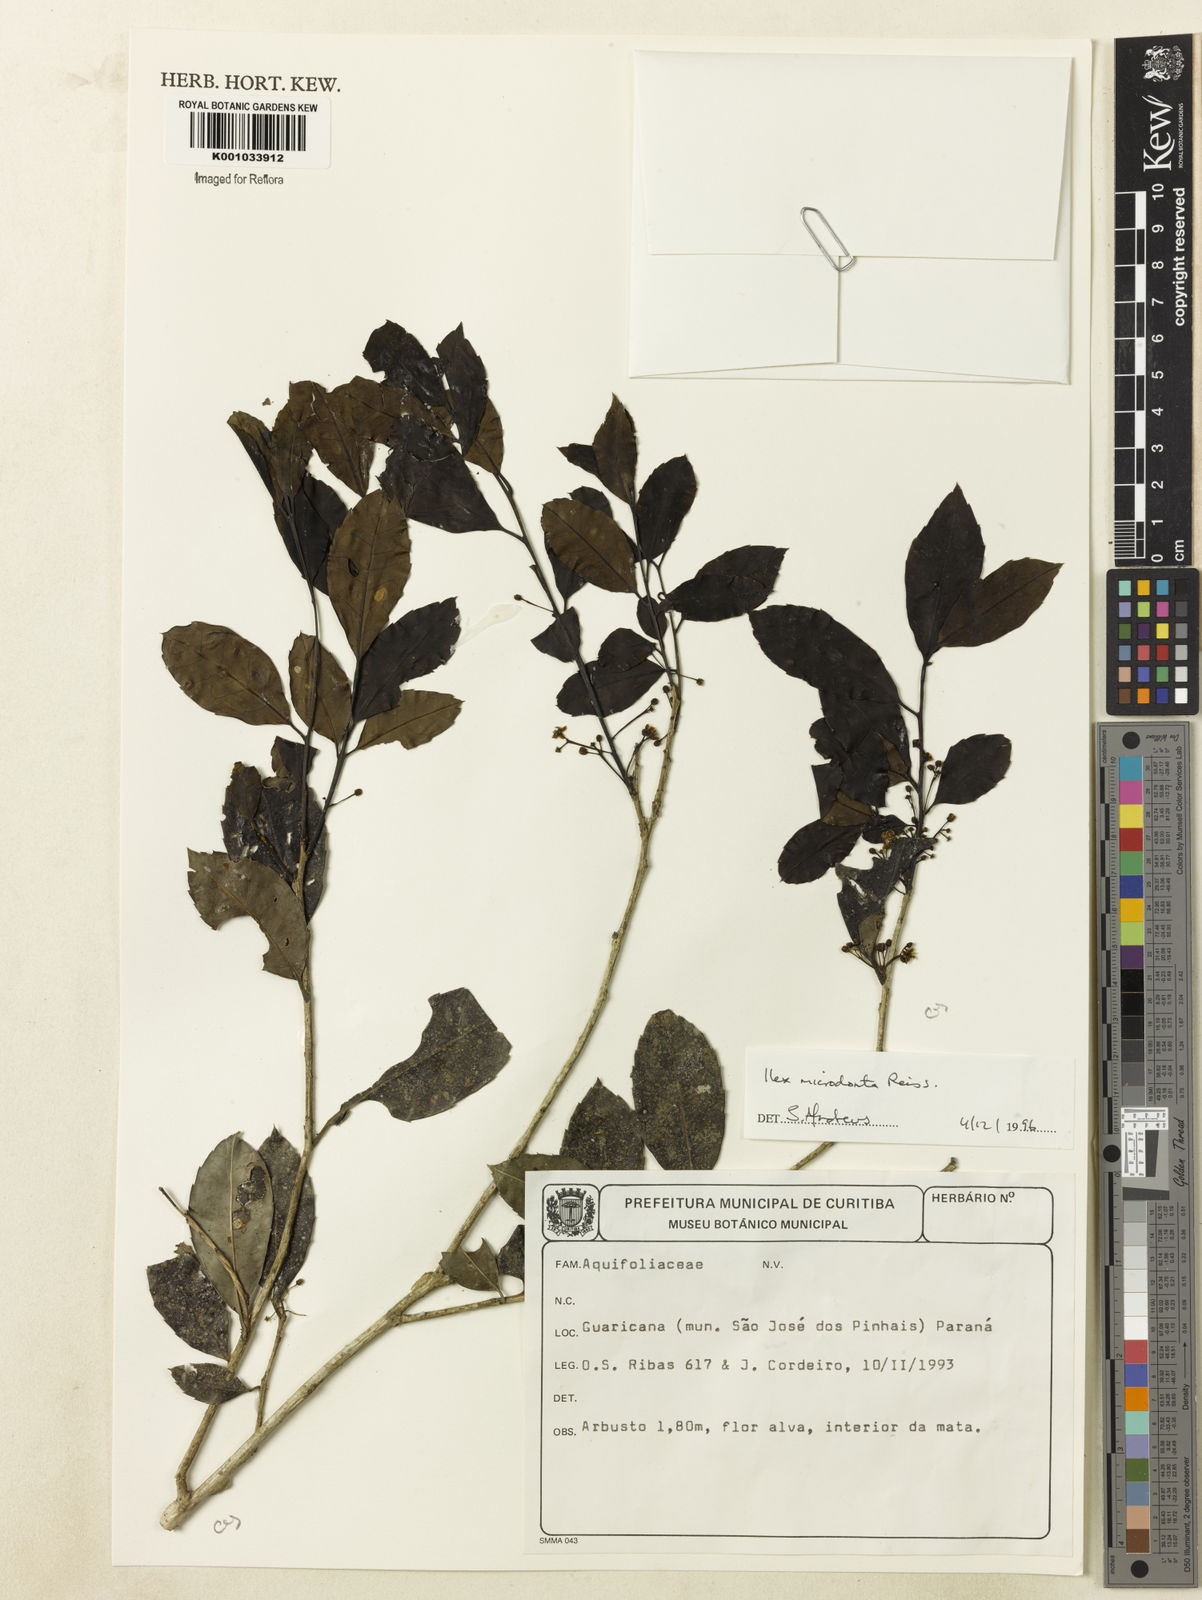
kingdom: Plantae
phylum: Tracheophyta
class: Magnoliopsida
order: Aquifoliales
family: Aquifoliaceae
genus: Ilex
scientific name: Ilex microdonta
